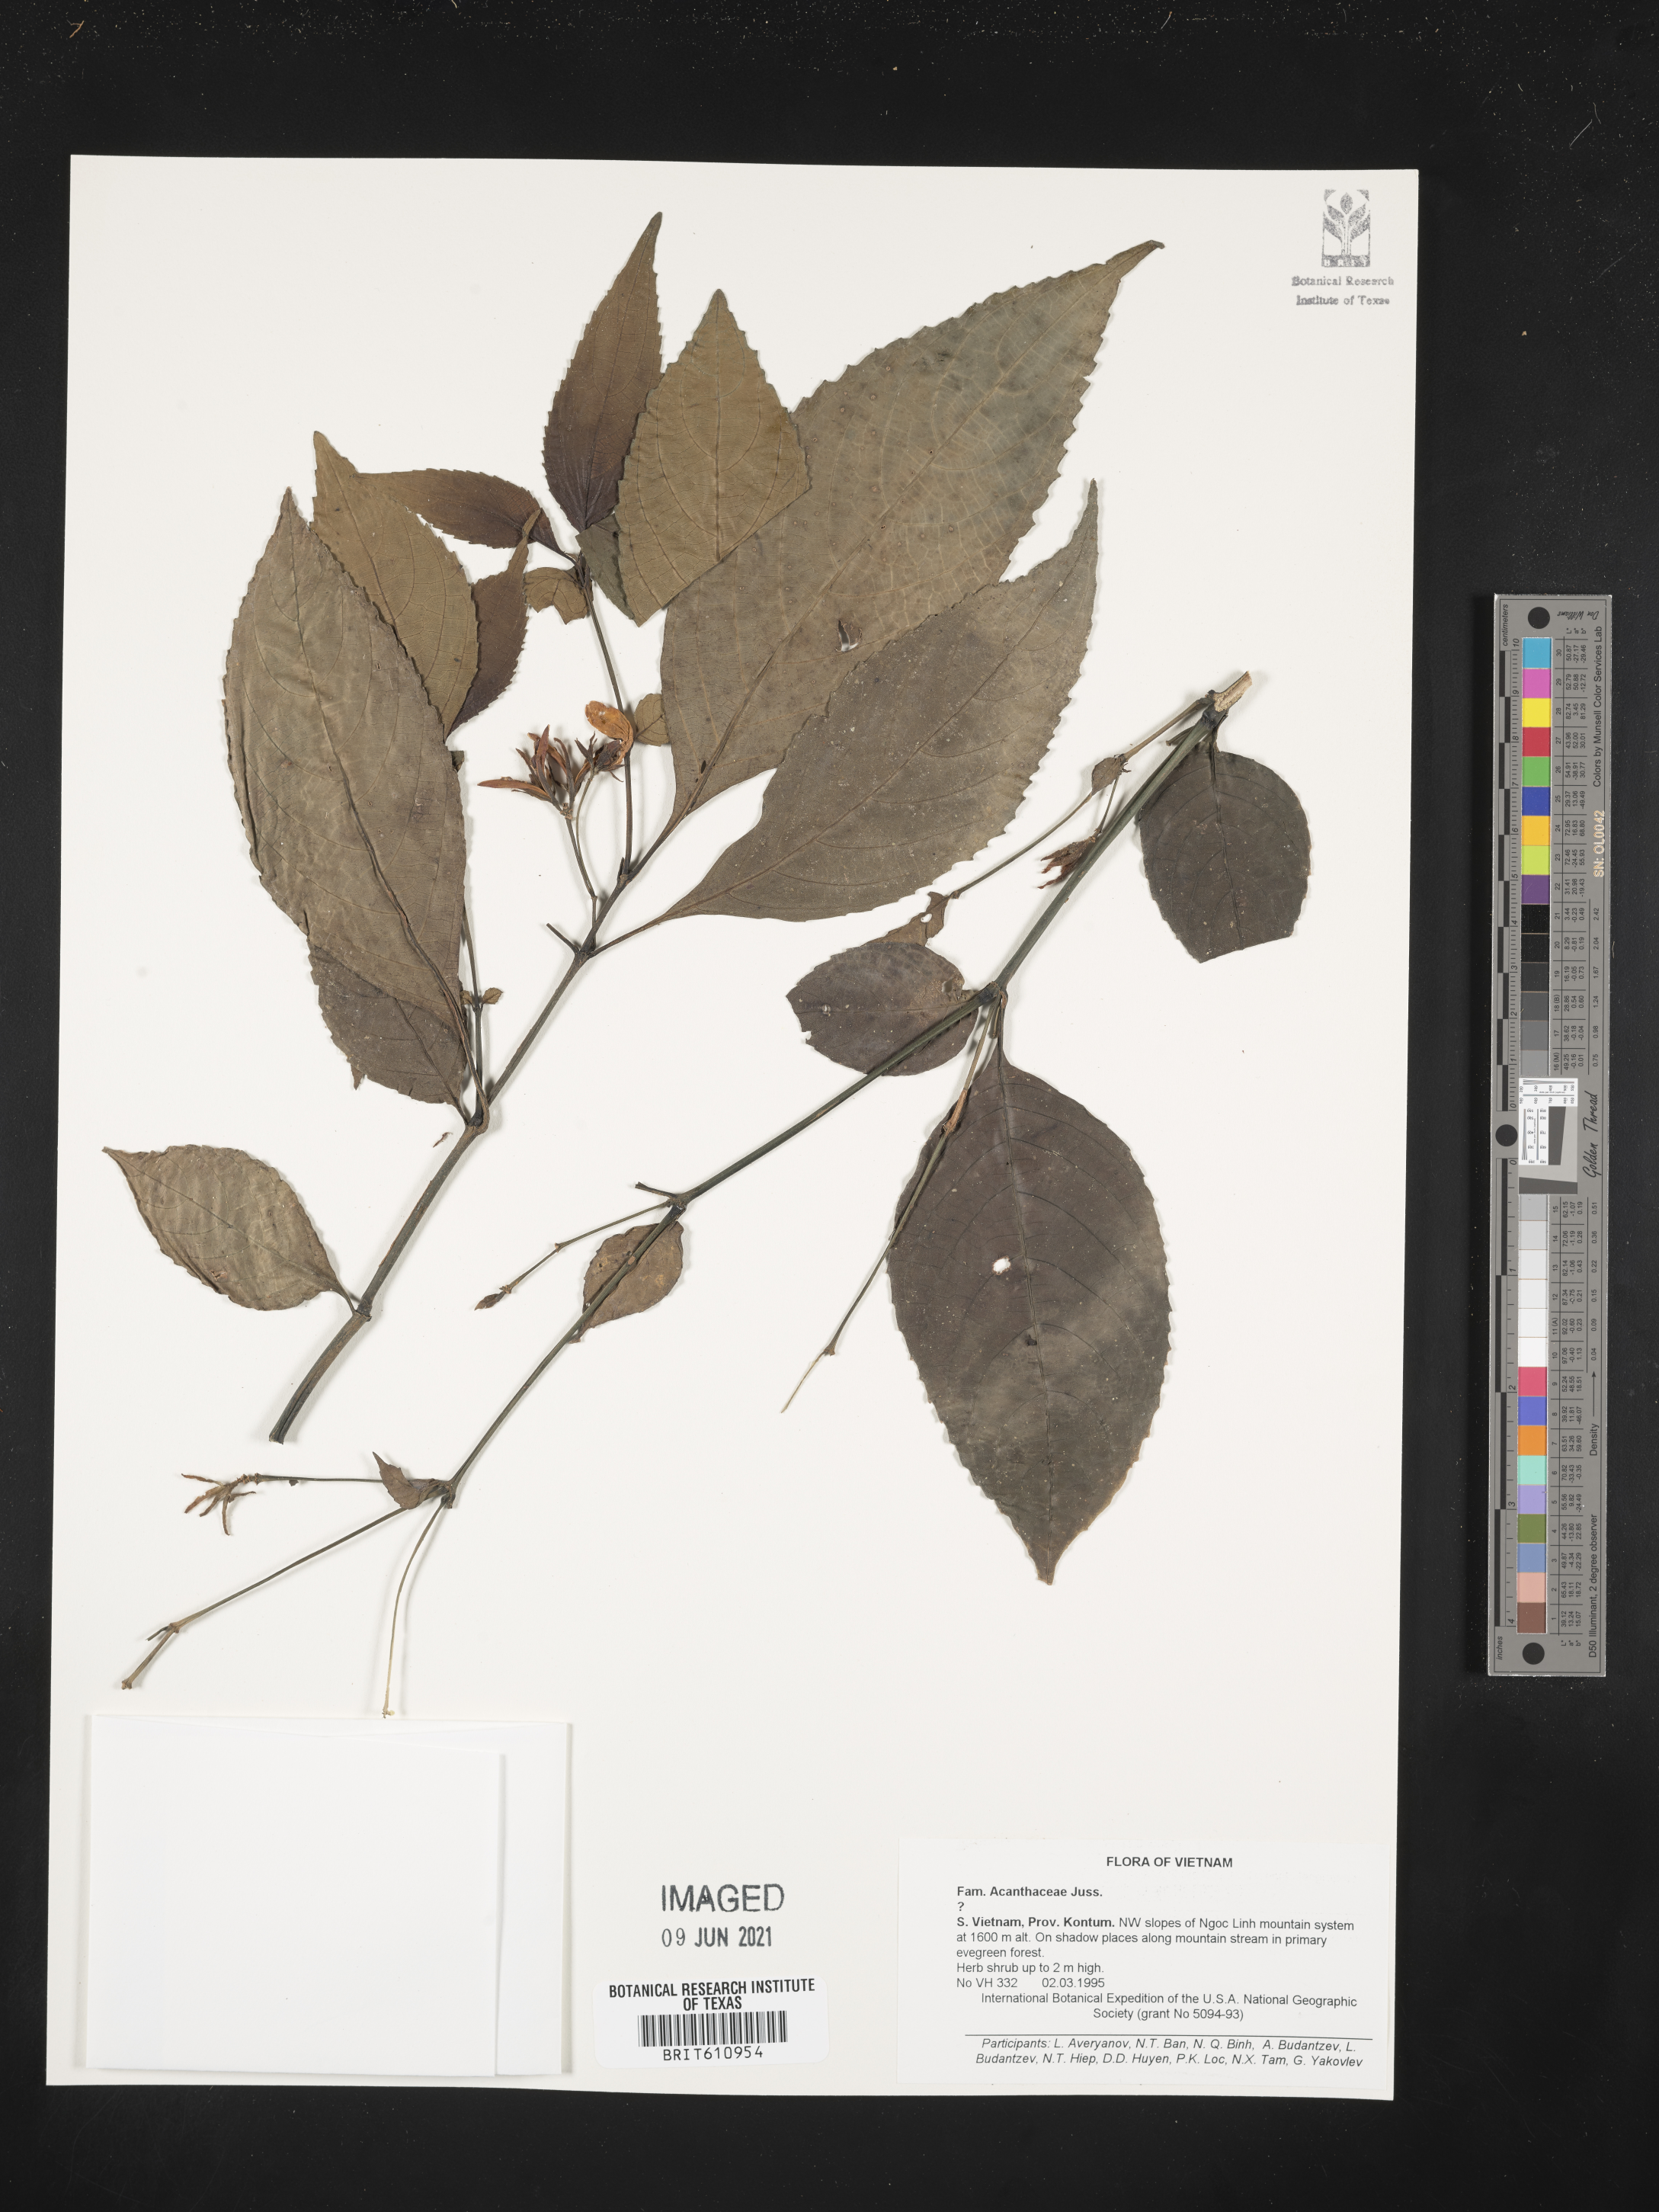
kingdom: Plantae
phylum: Tracheophyta
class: Magnoliopsida
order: Lamiales
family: Acanthaceae
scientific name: Acanthaceae
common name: Acanthaceae
